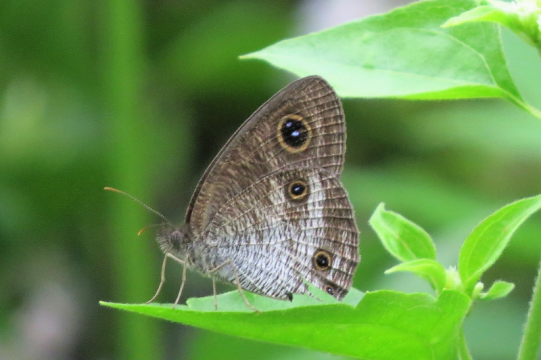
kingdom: Animalia
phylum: Arthropoda
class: Insecta
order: Lepidoptera
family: Nymphalidae
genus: Ypthima
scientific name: Ypthima pandocus
